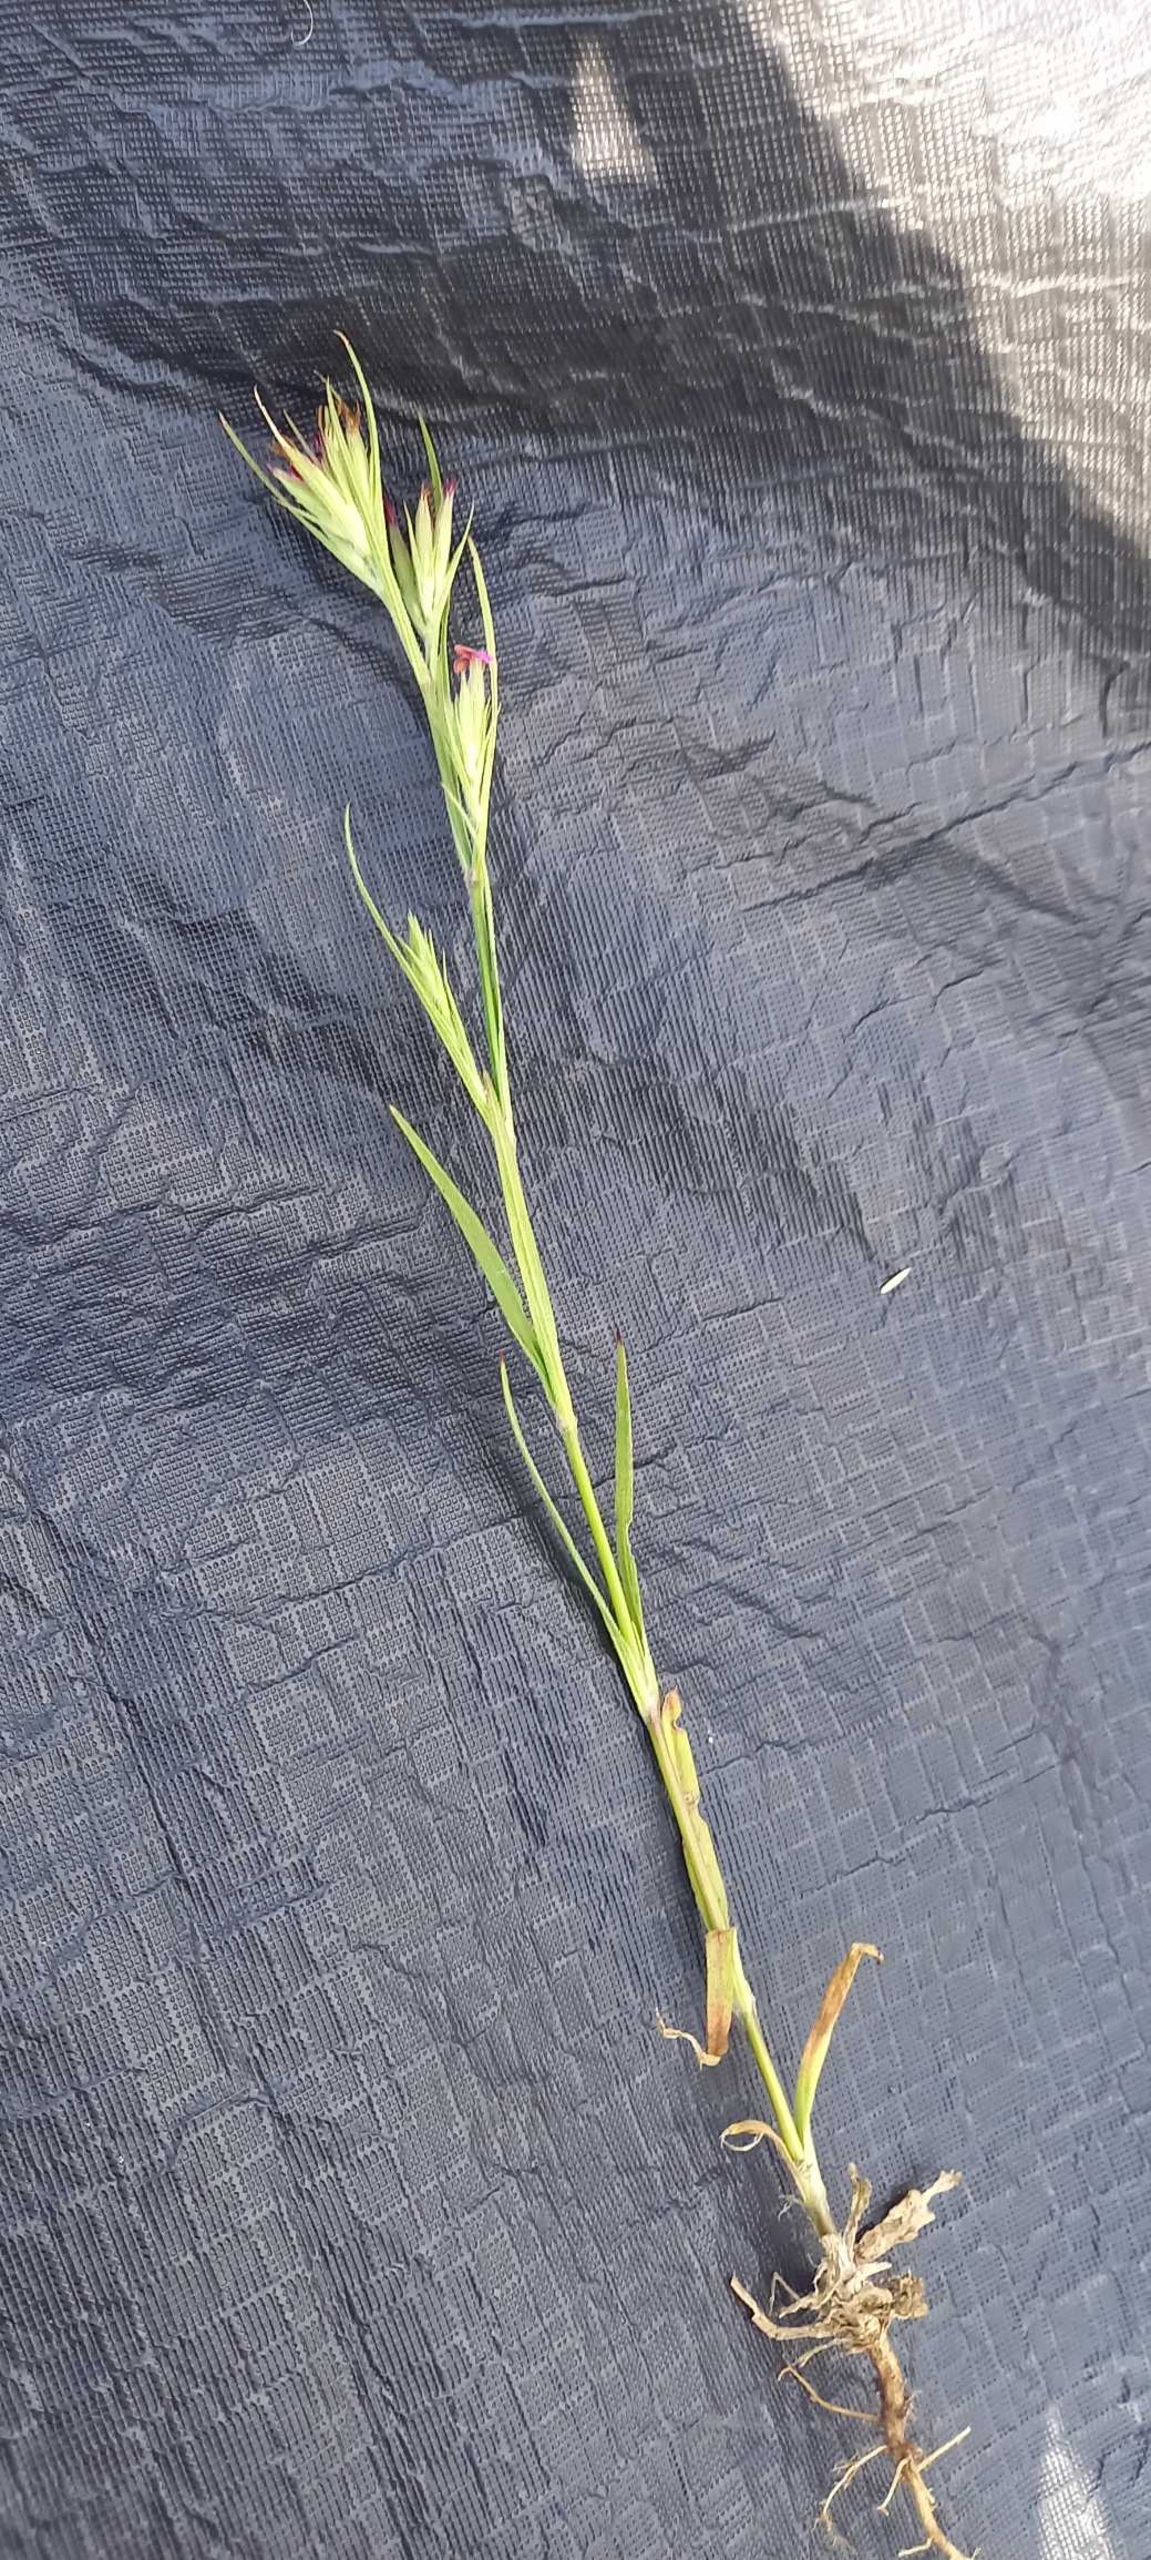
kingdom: Plantae
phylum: Tracheophyta
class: Magnoliopsida
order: Caryophyllales
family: Caryophyllaceae
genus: Dianthus
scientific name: Dianthus armeria
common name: Kost-nellike
